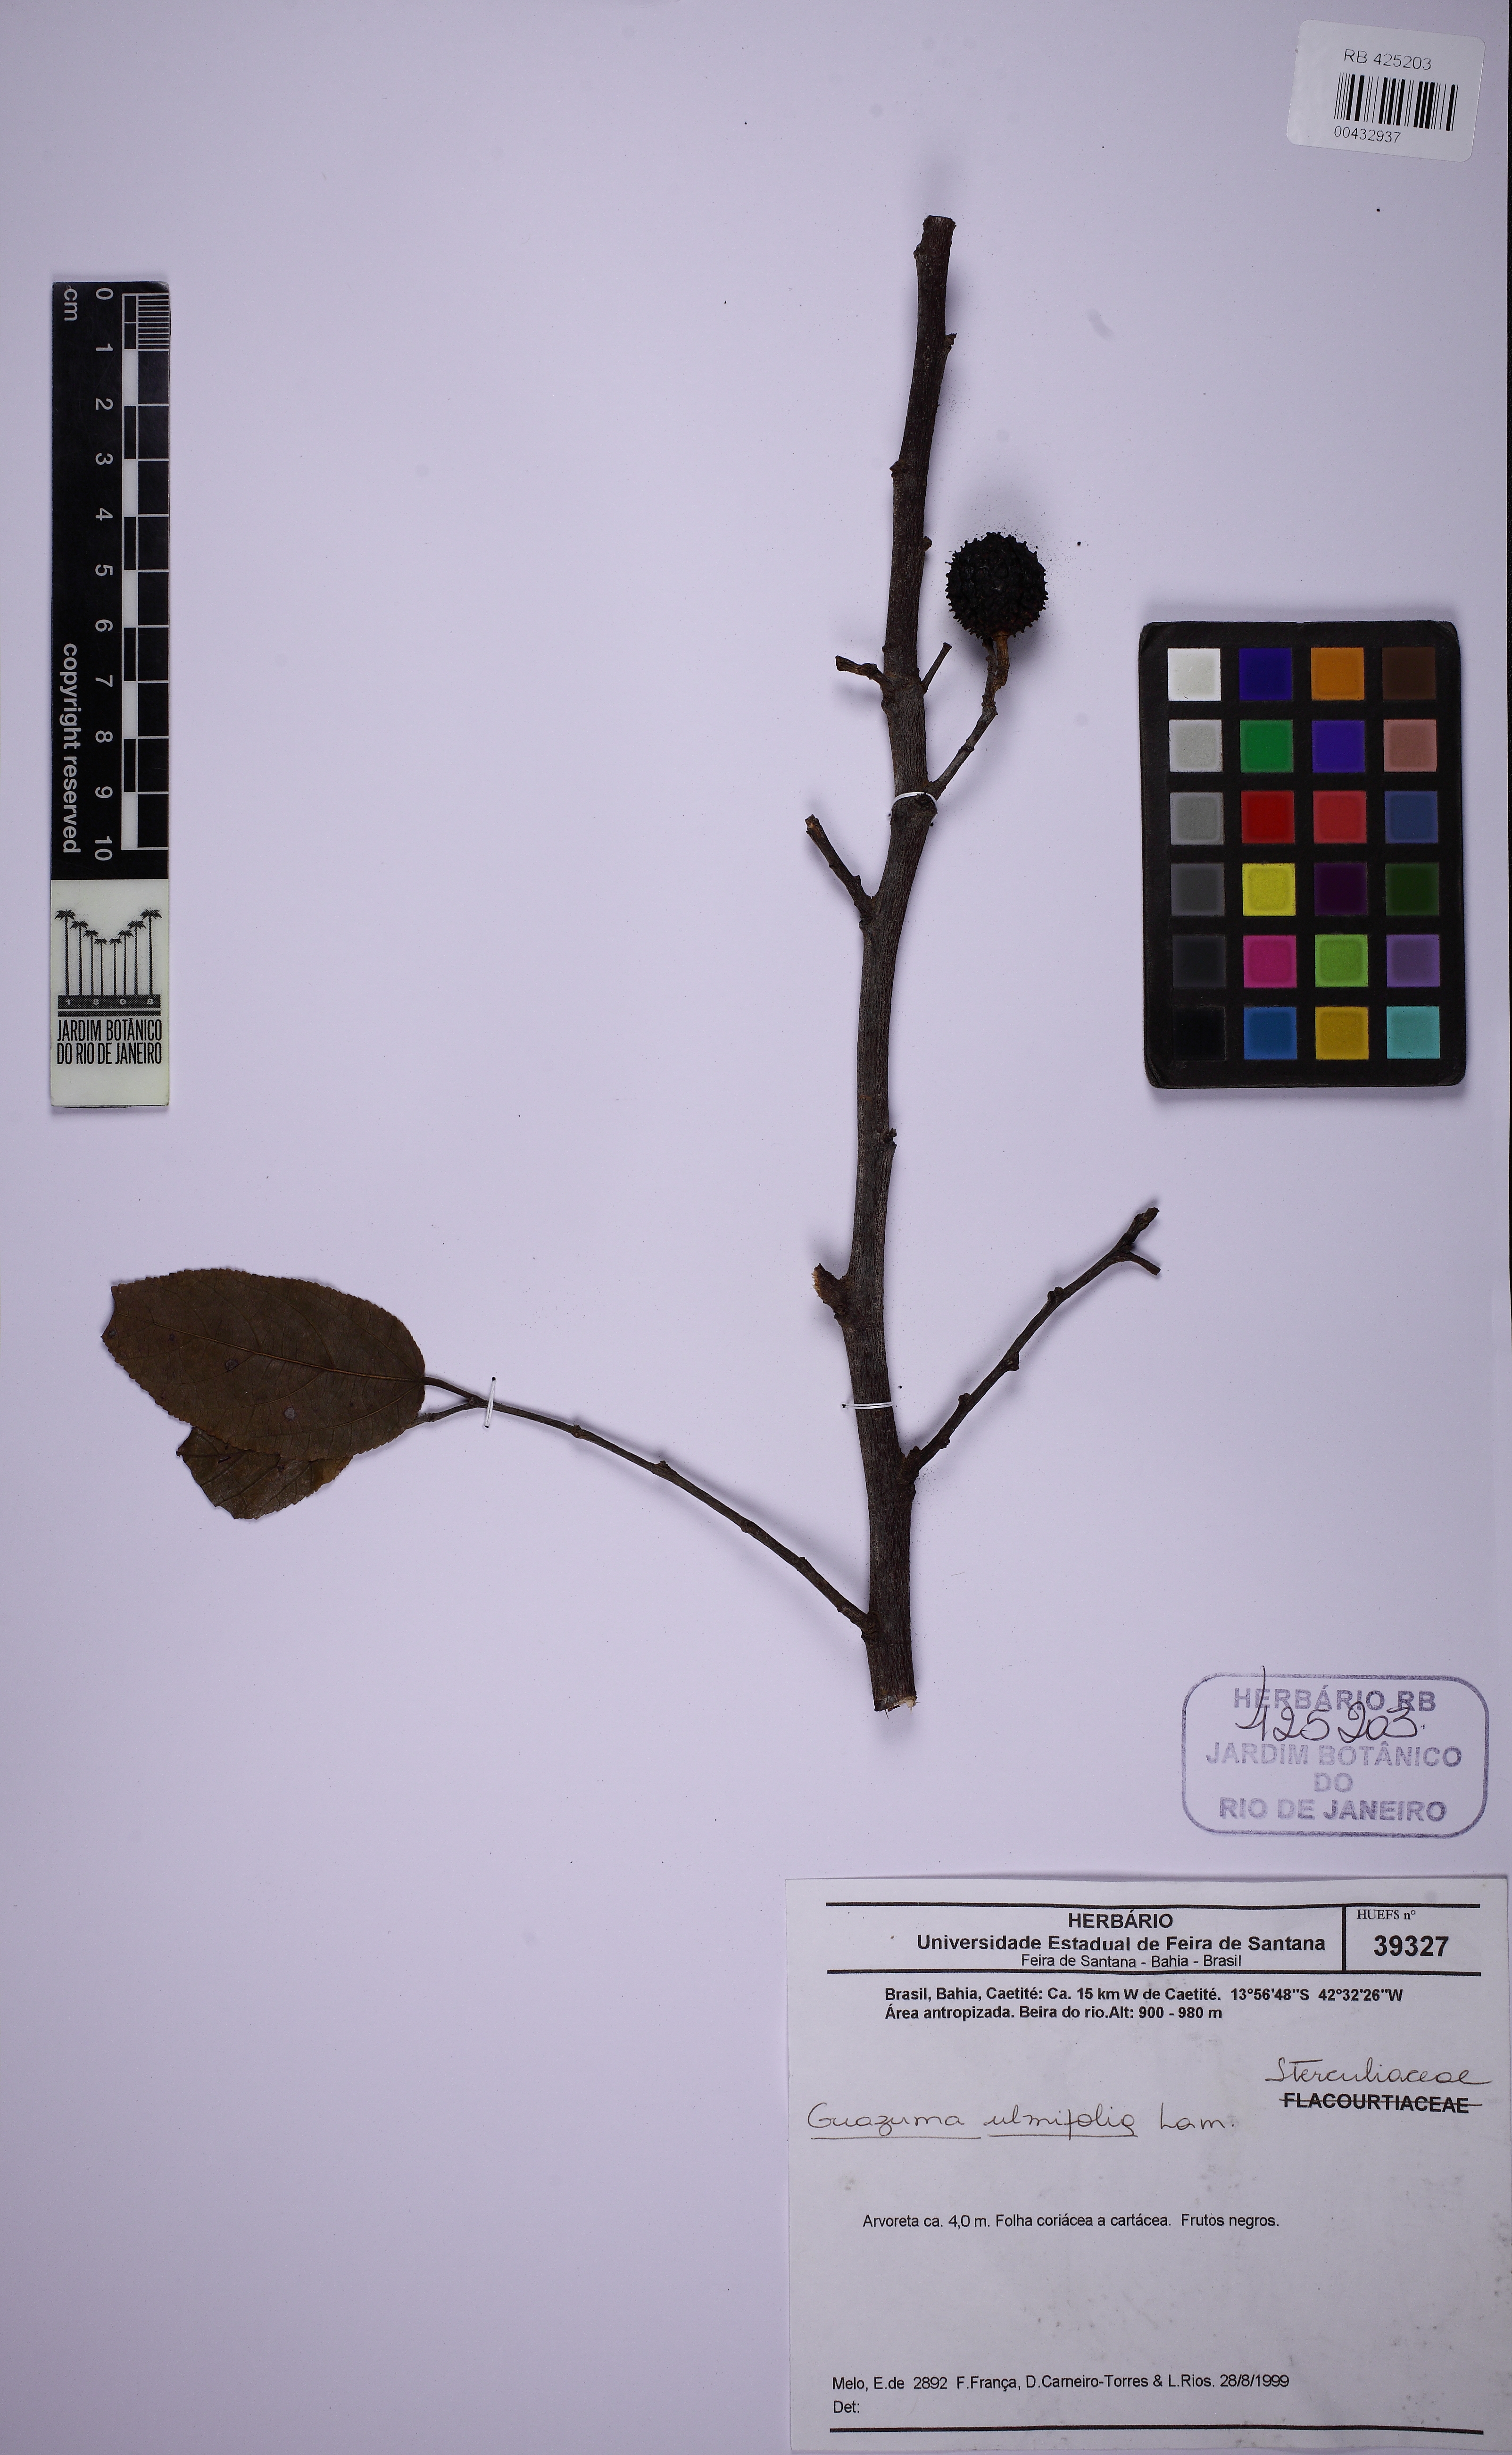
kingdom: Plantae
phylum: Tracheophyta
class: Magnoliopsida
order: Malvales
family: Malvaceae
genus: Guazuma
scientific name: Guazuma ulmifolia
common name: Bastard-cedar
